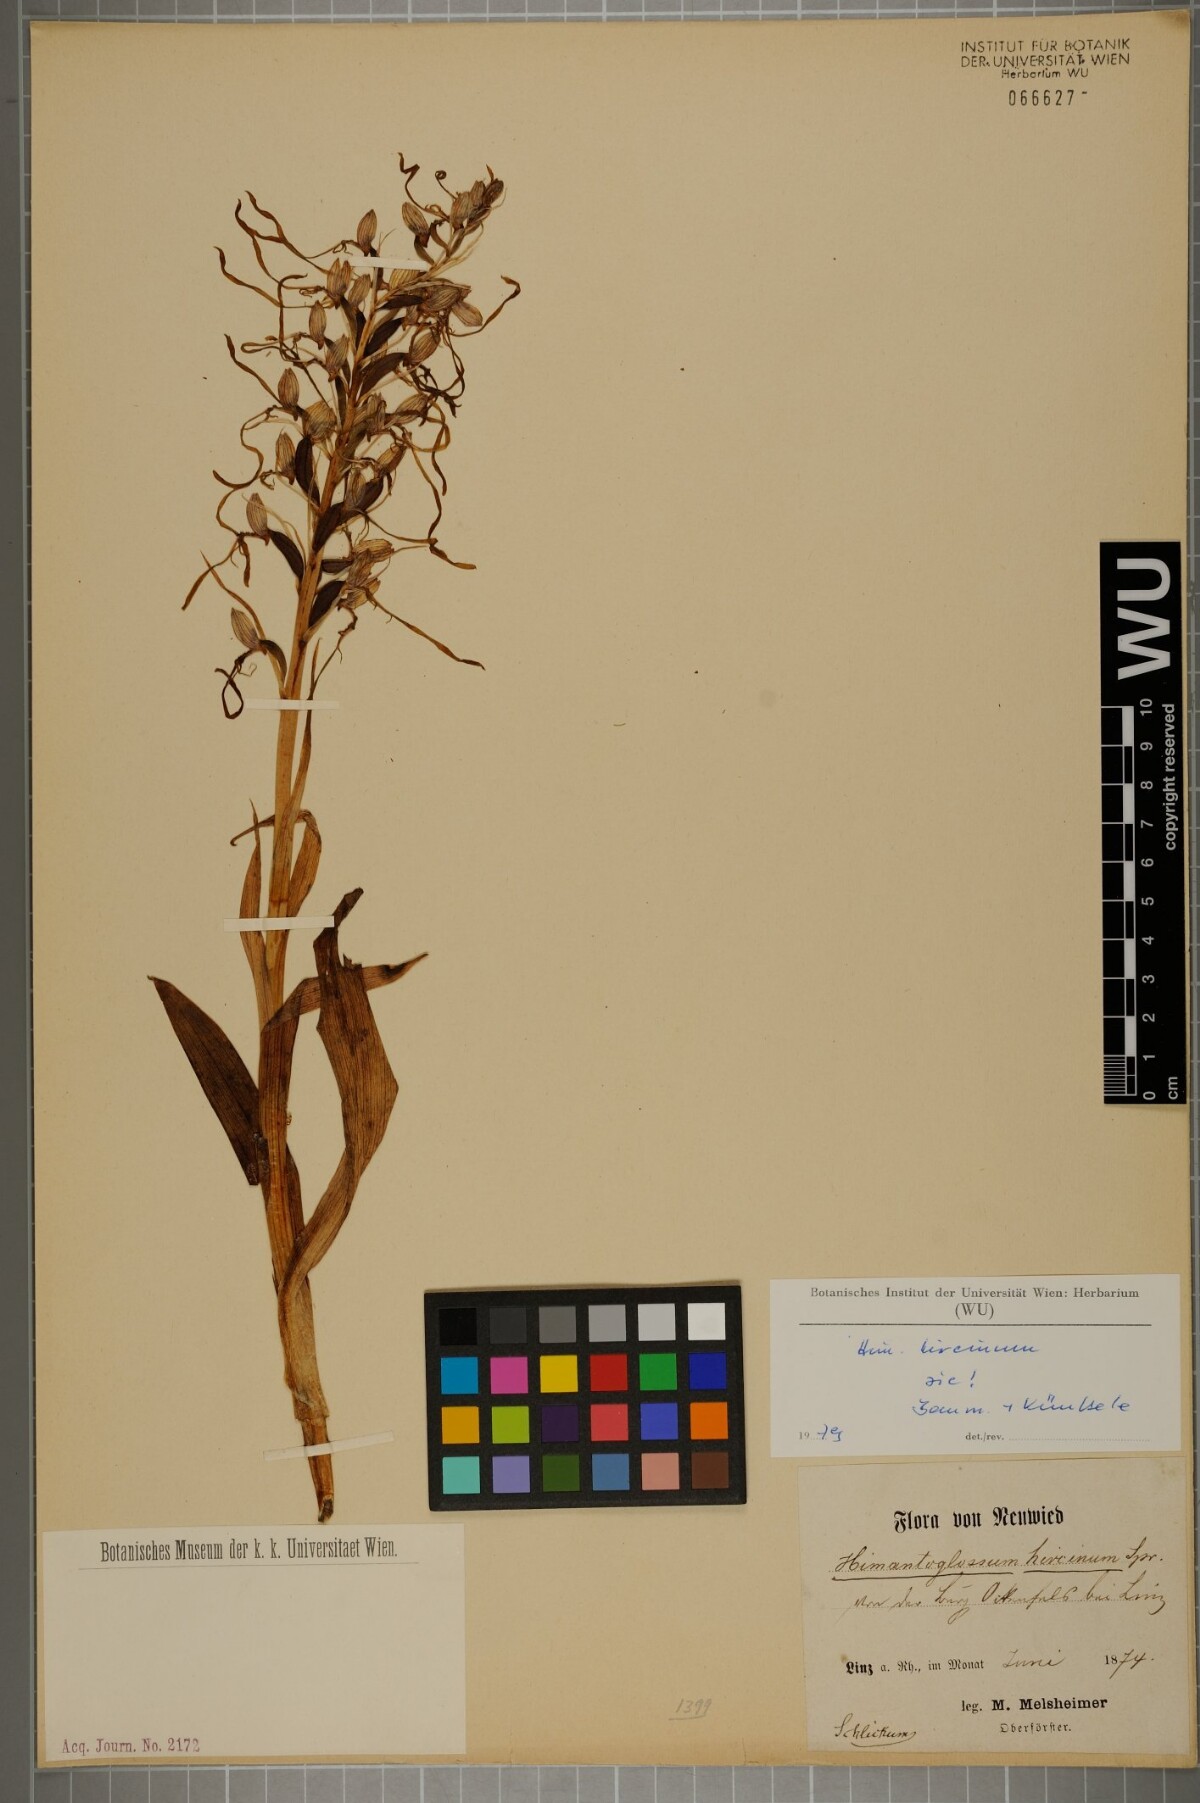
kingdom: Plantae
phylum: Tracheophyta
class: Liliopsida
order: Asparagales
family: Orchidaceae
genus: Himantoglossum
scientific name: Himantoglossum hircinum
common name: Lizard orchid
